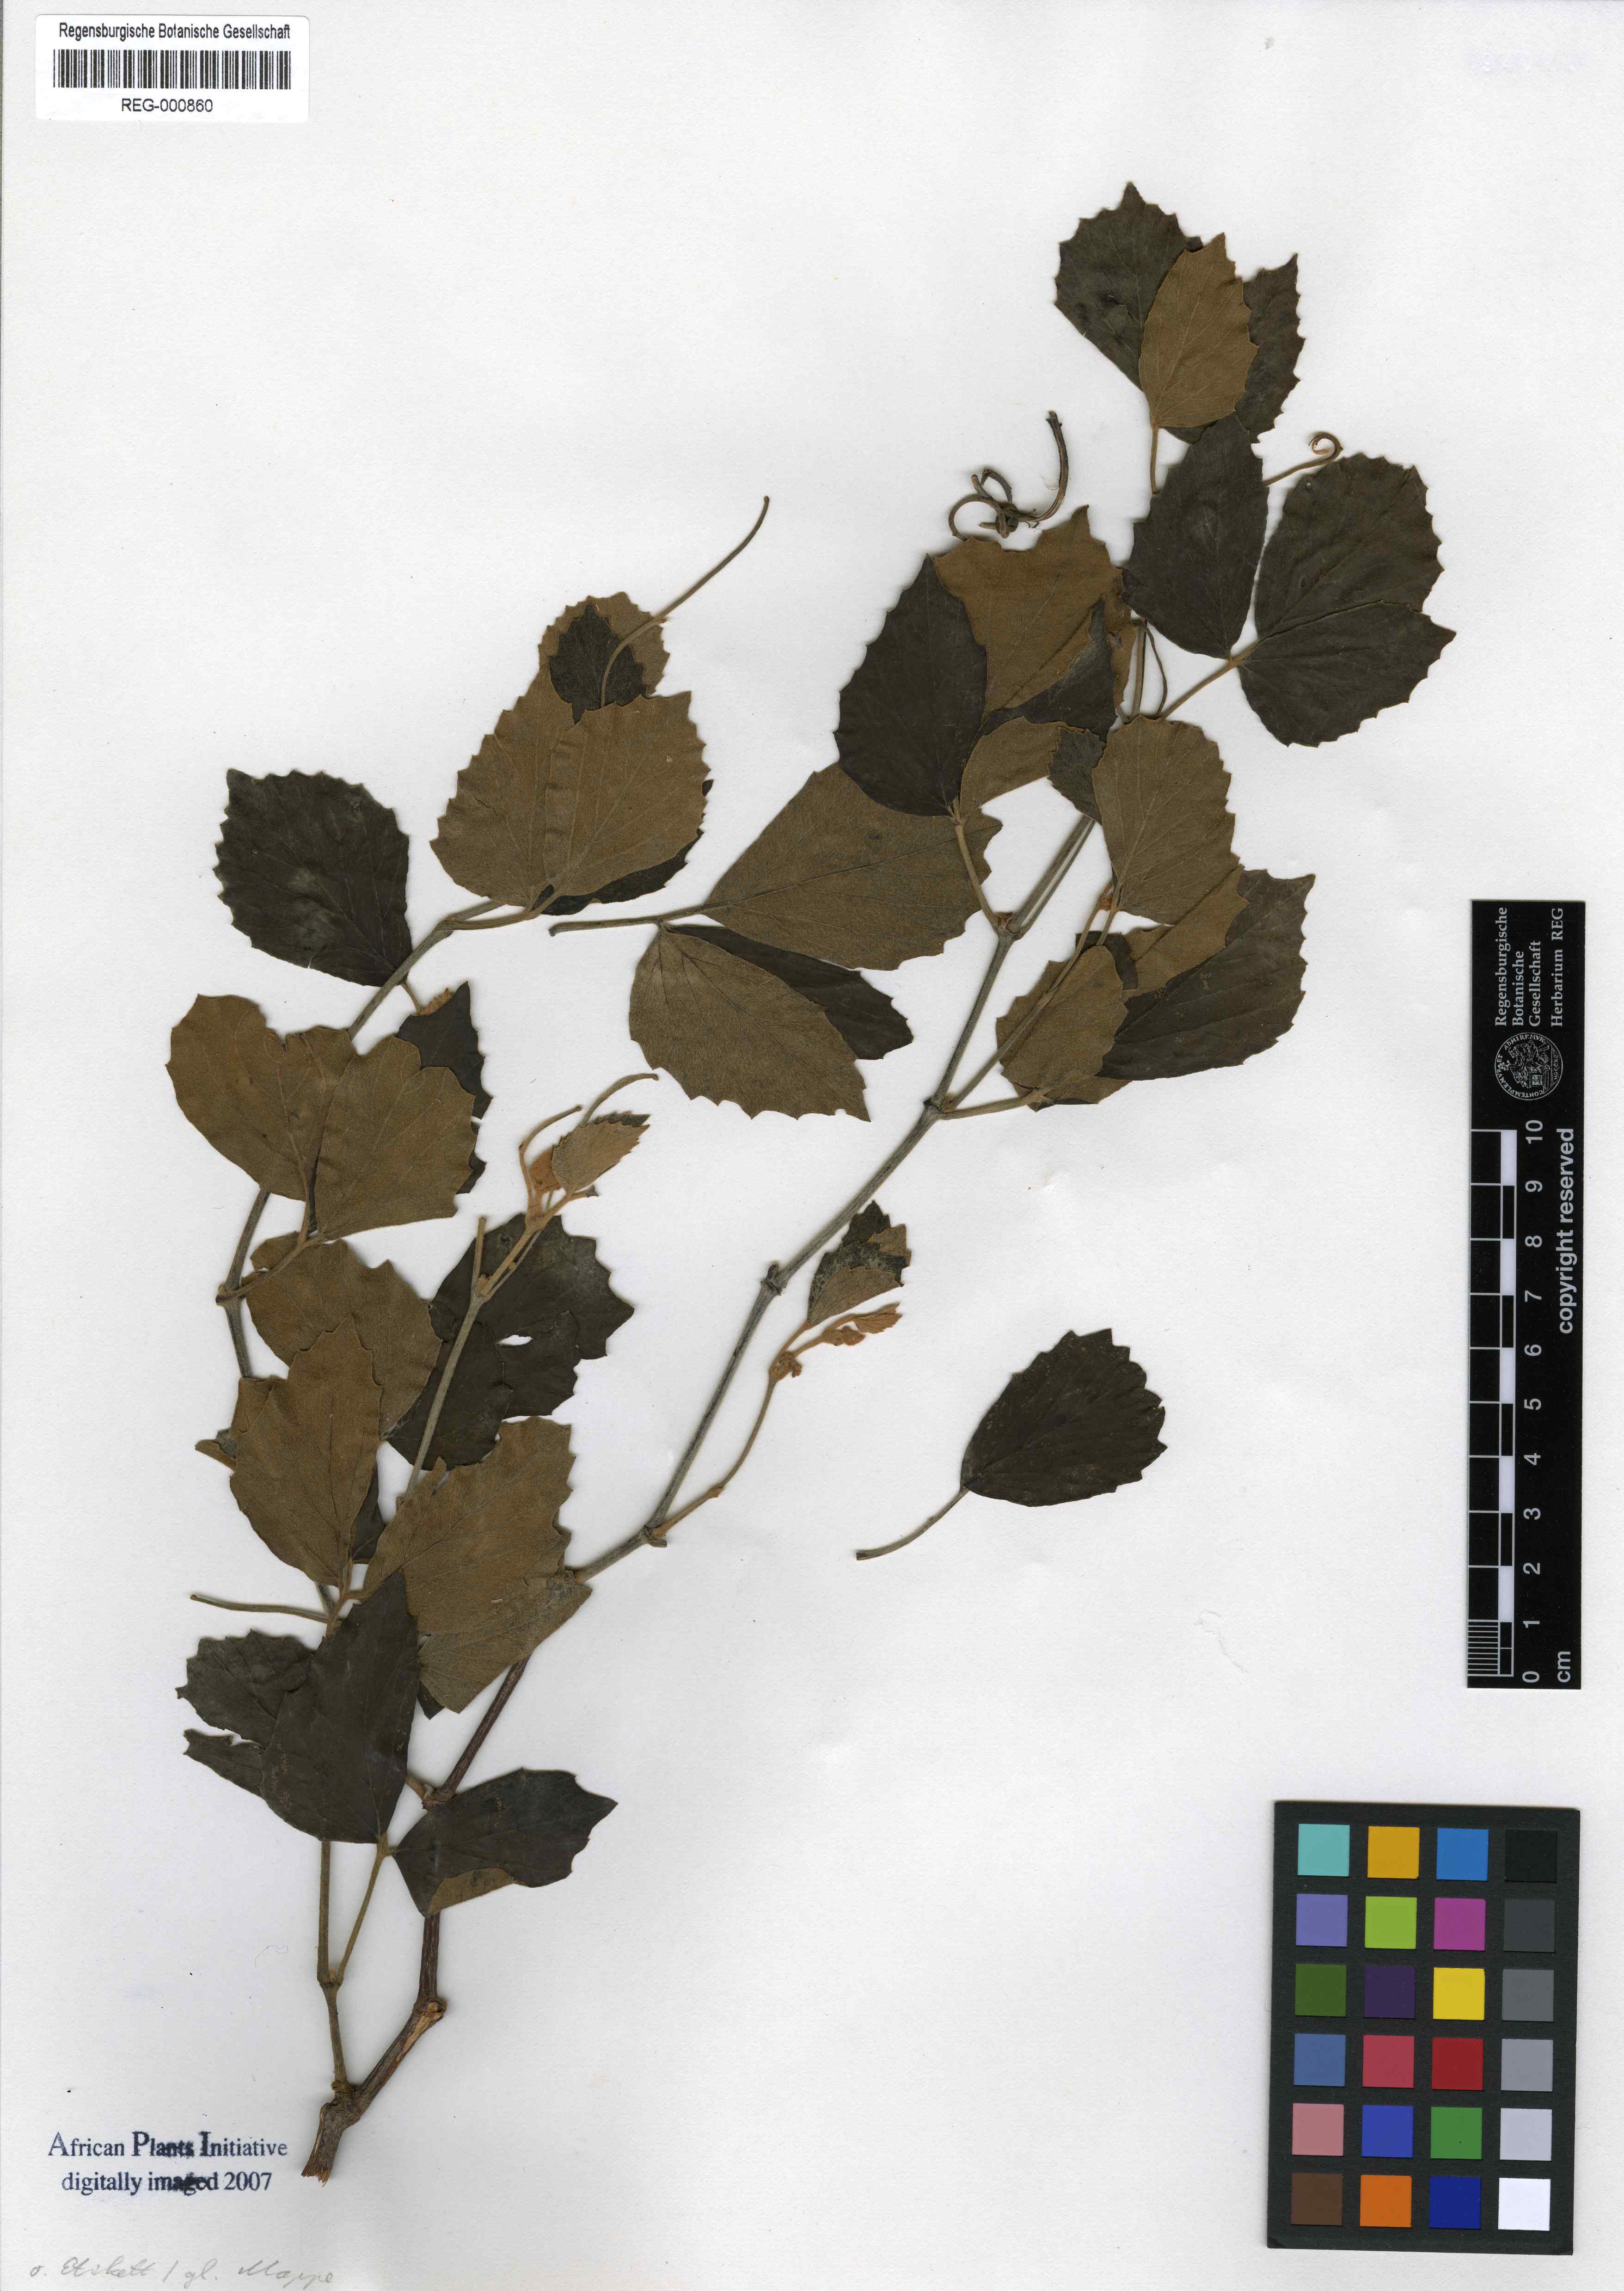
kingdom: Plantae
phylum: Tracheophyta
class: Magnoliopsida
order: Vitales
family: Vitaceae
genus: Rhoicissus
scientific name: Rhoicissus tridentata
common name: Common forest grape
